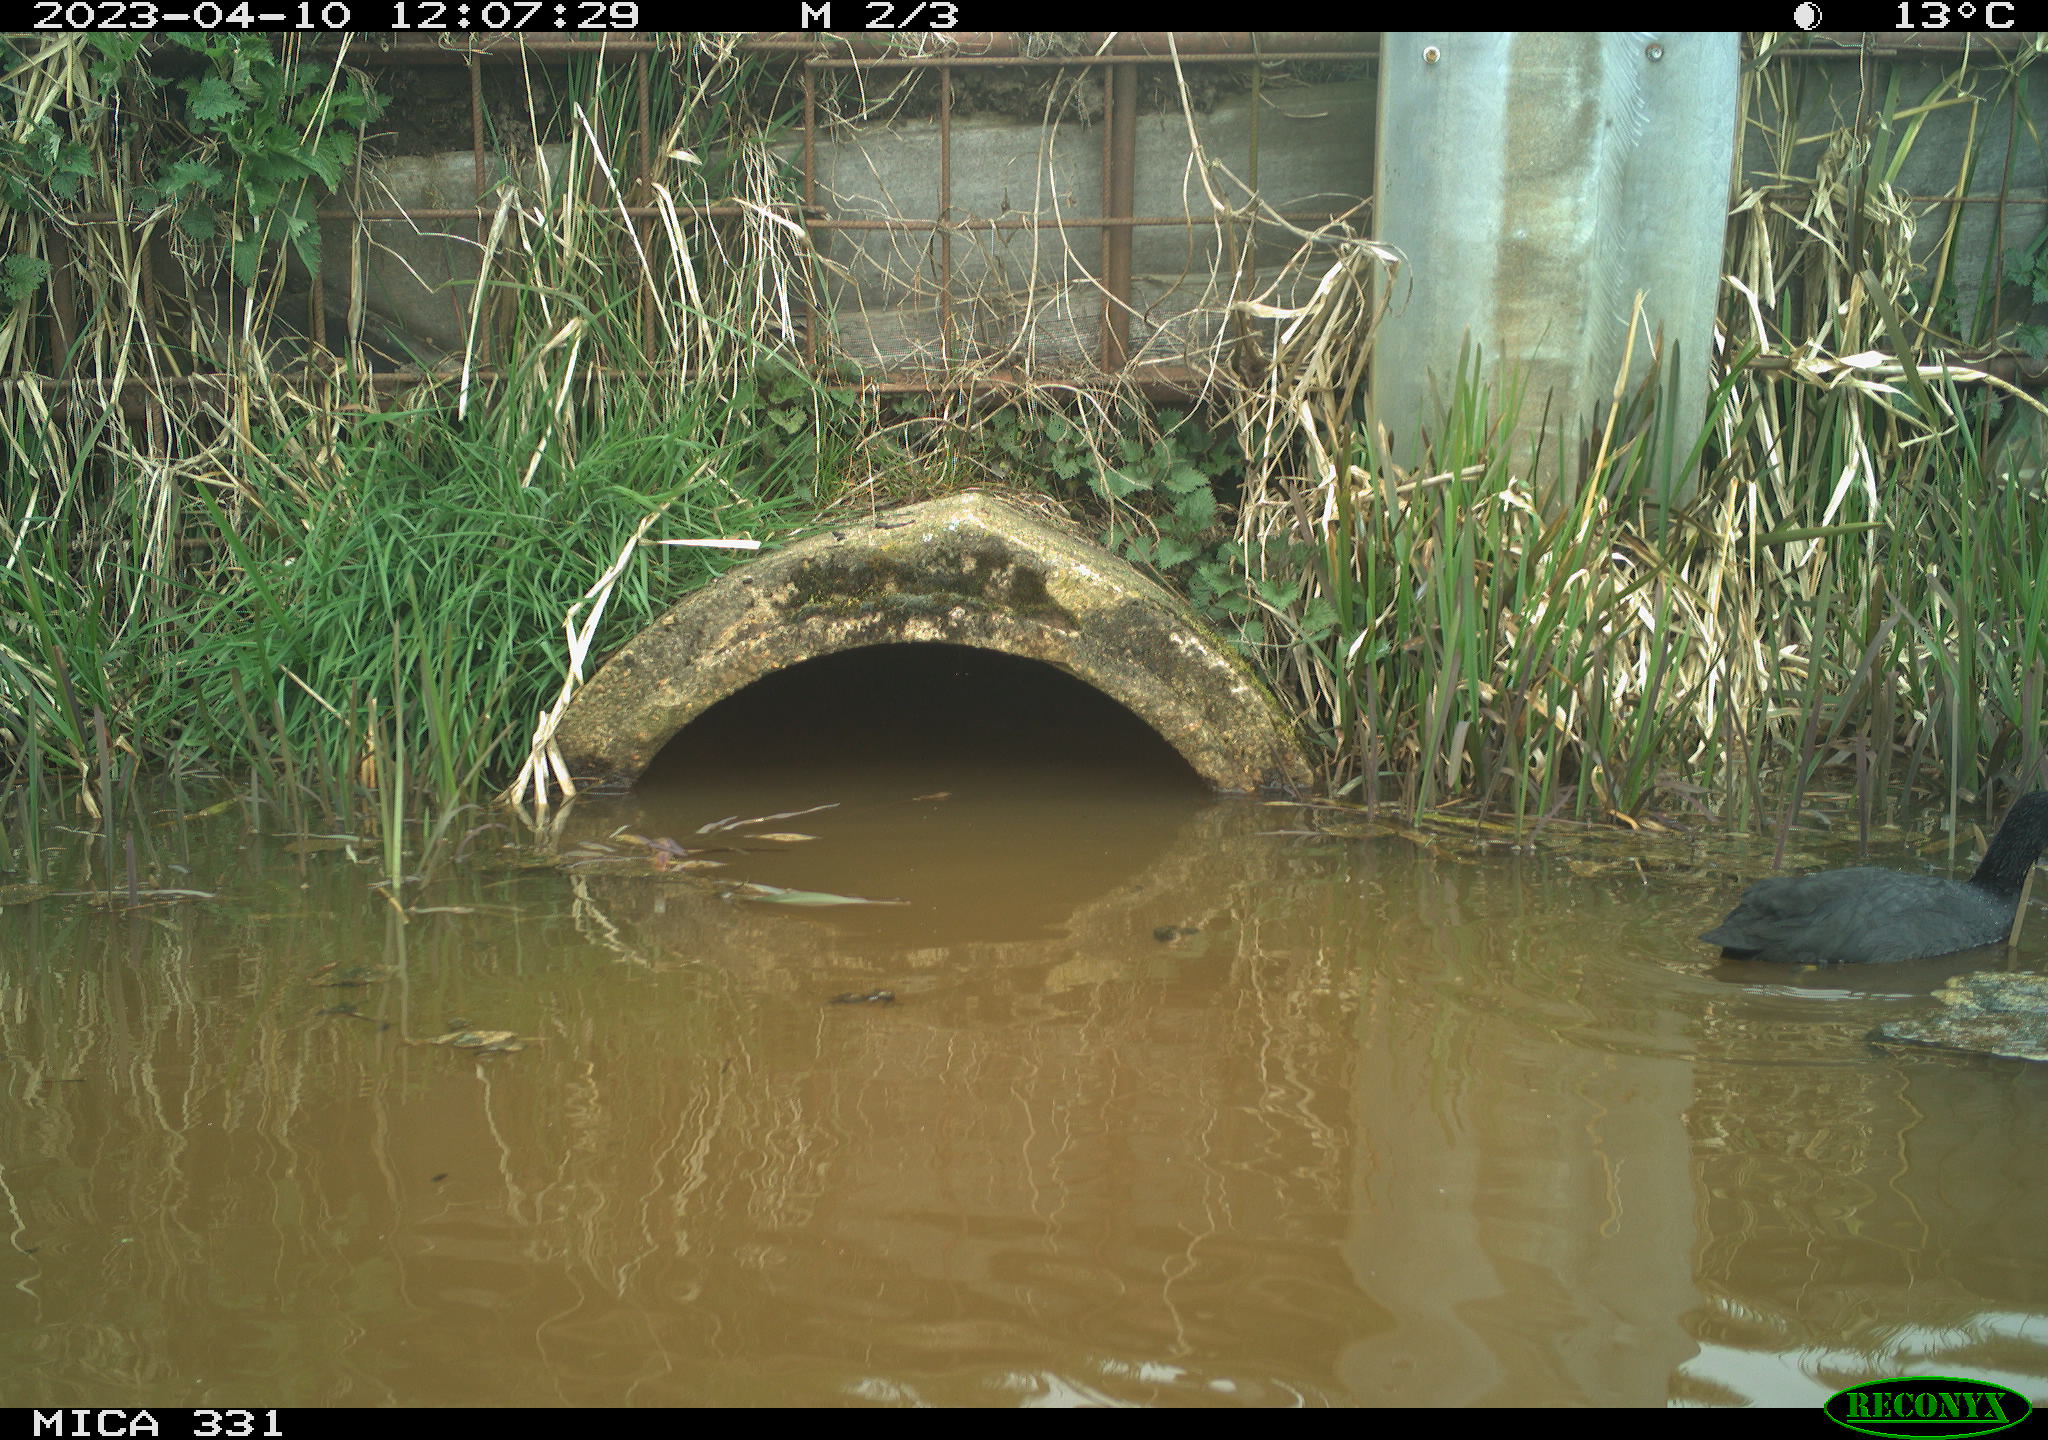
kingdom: Animalia
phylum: Chordata
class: Aves
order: Gruiformes
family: Rallidae
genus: Fulica
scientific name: Fulica atra
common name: Eurasian coot
